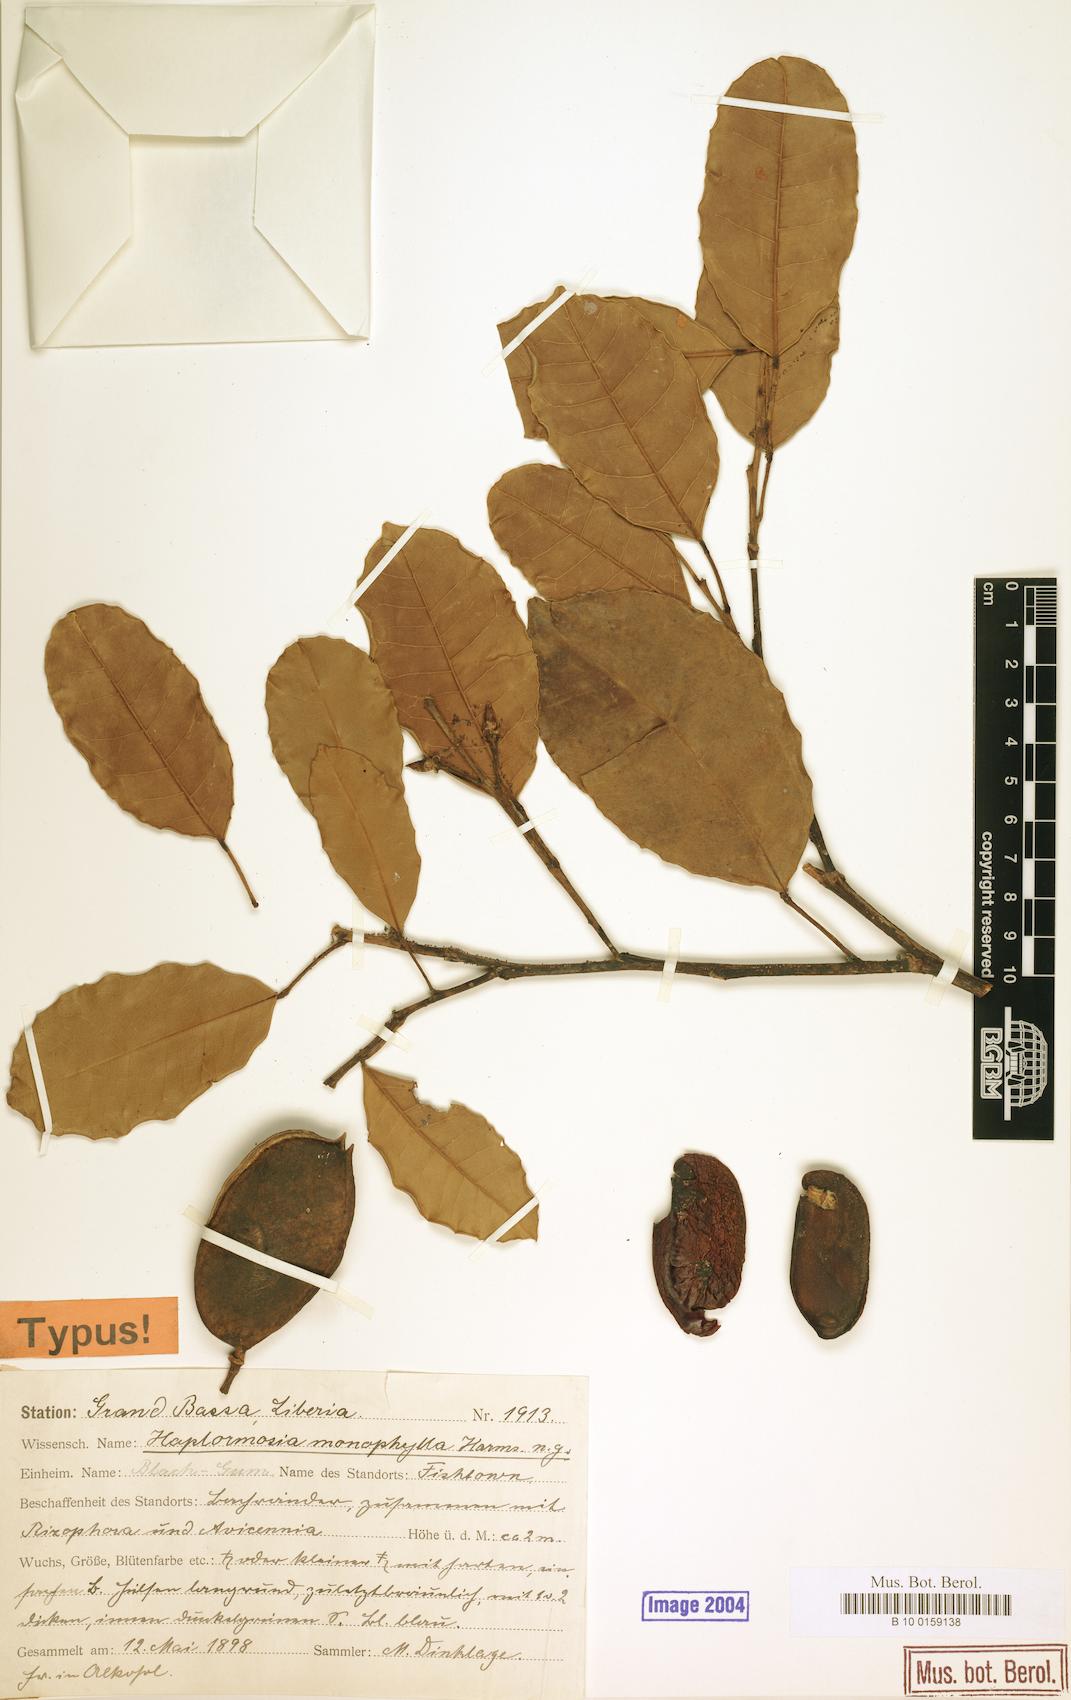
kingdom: Plantae
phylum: Tracheophyta
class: Magnoliopsida
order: Fabales
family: Fabaceae
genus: Haplormosia
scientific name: Haplormosia monophylla
